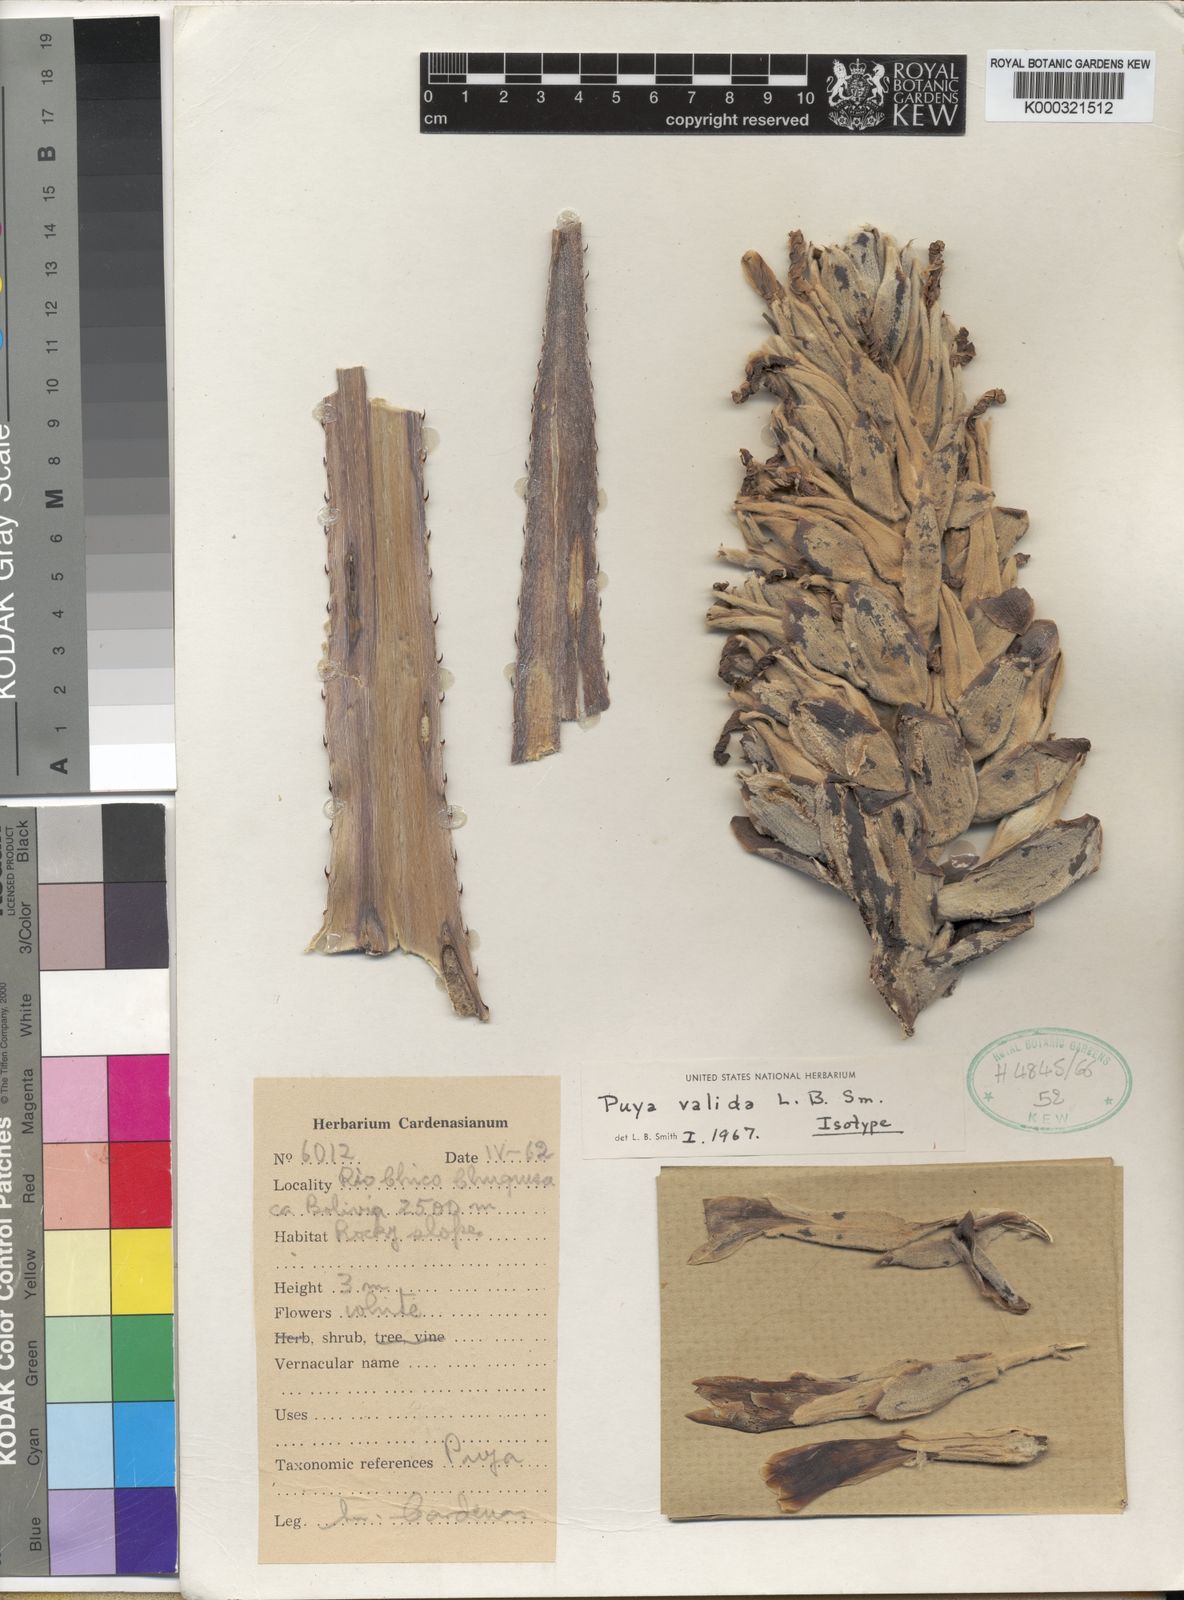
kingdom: Plantae
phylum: Tracheophyta
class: Liliopsida
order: Poales
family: Bromeliaceae
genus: Puya
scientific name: Puya valida
